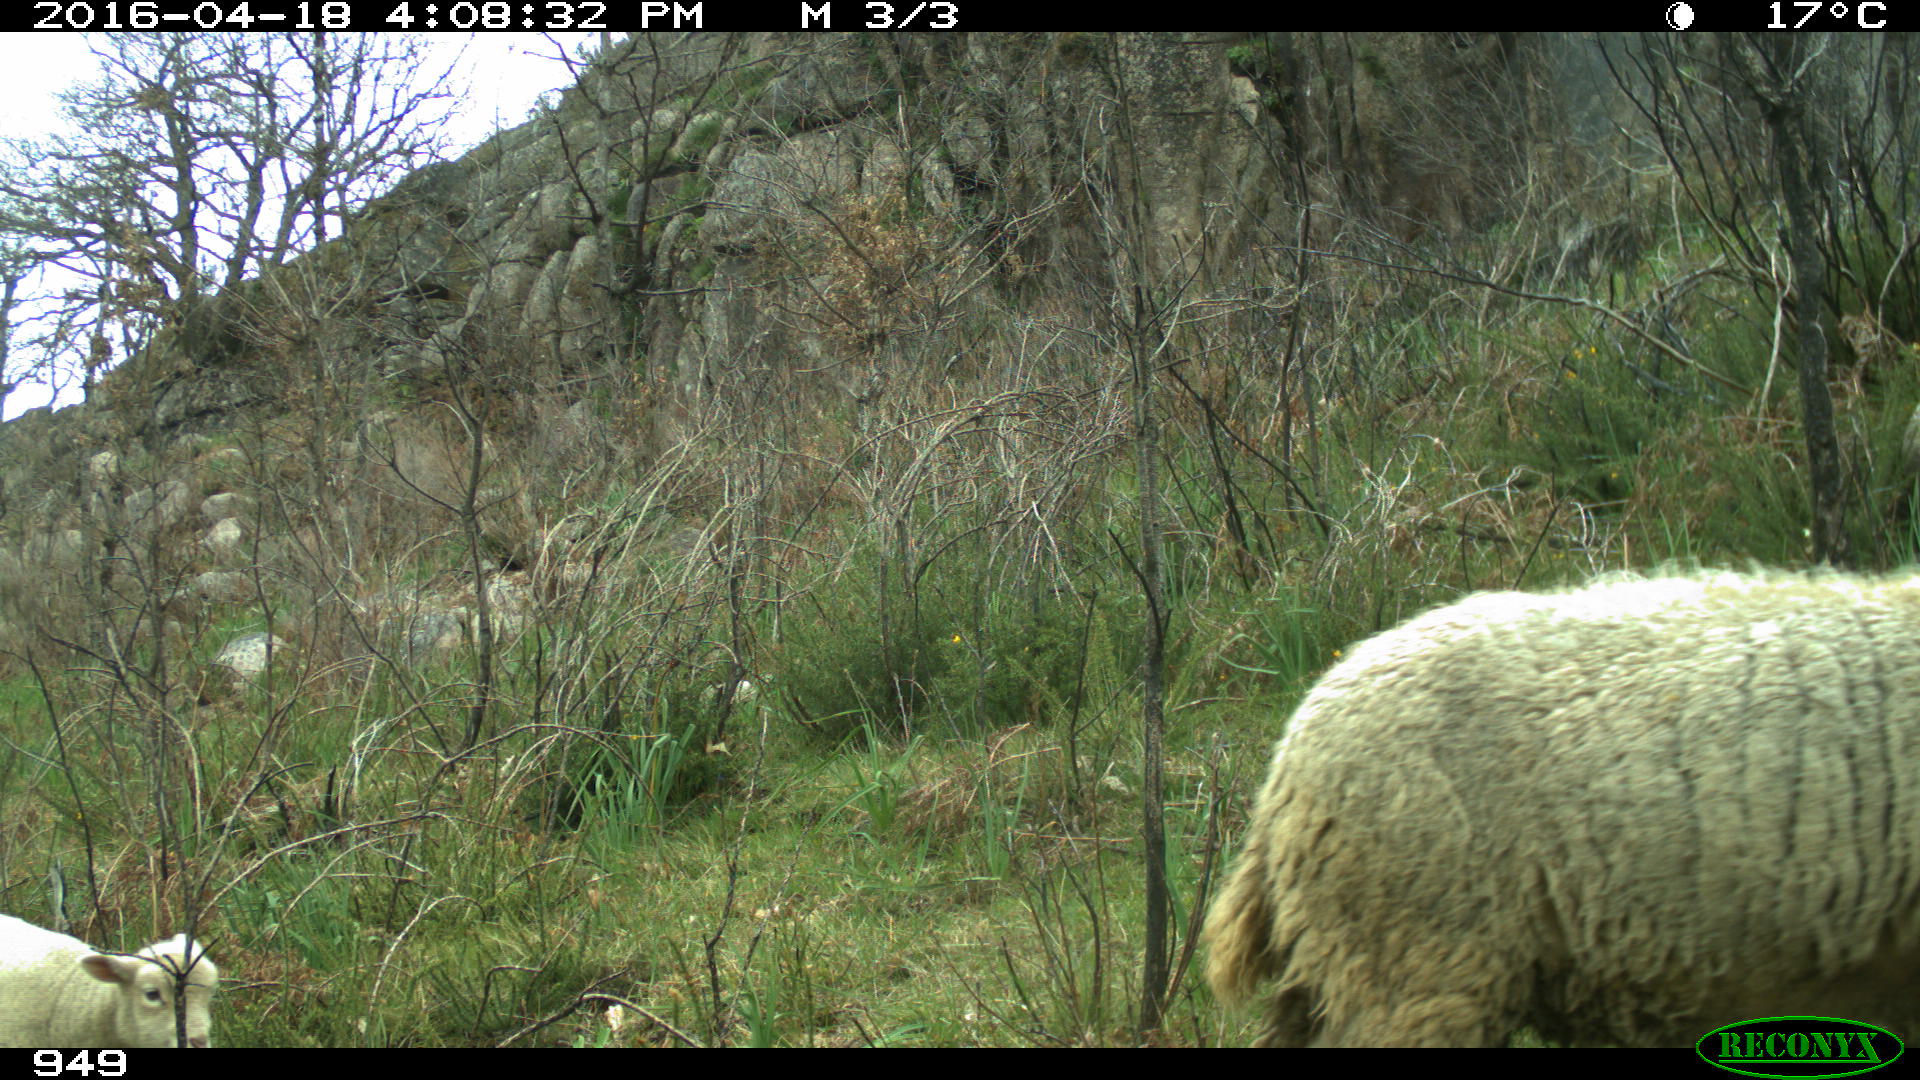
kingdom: Animalia
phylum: Chordata
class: Mammalia
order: Artiodactyla
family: Bovidae
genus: Ovis
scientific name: Ovis aries
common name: Domestic sheep
